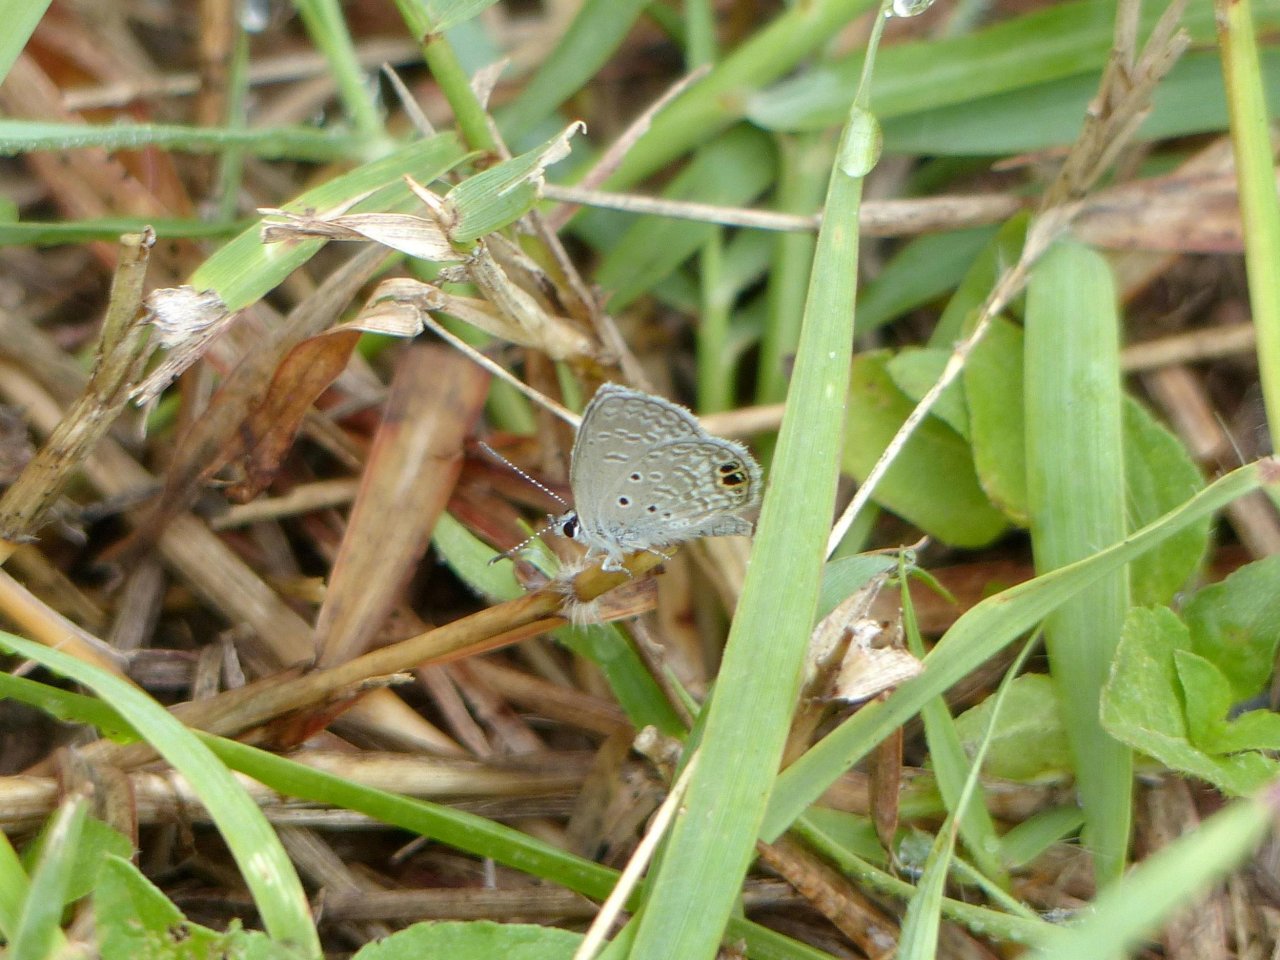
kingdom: Animalia
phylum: Arthropoda
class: Insecta
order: Lepidoptera
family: Lycaenidae
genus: Hemiargus
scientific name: Hemiargus ceraunus
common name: Ceraunus Blue
